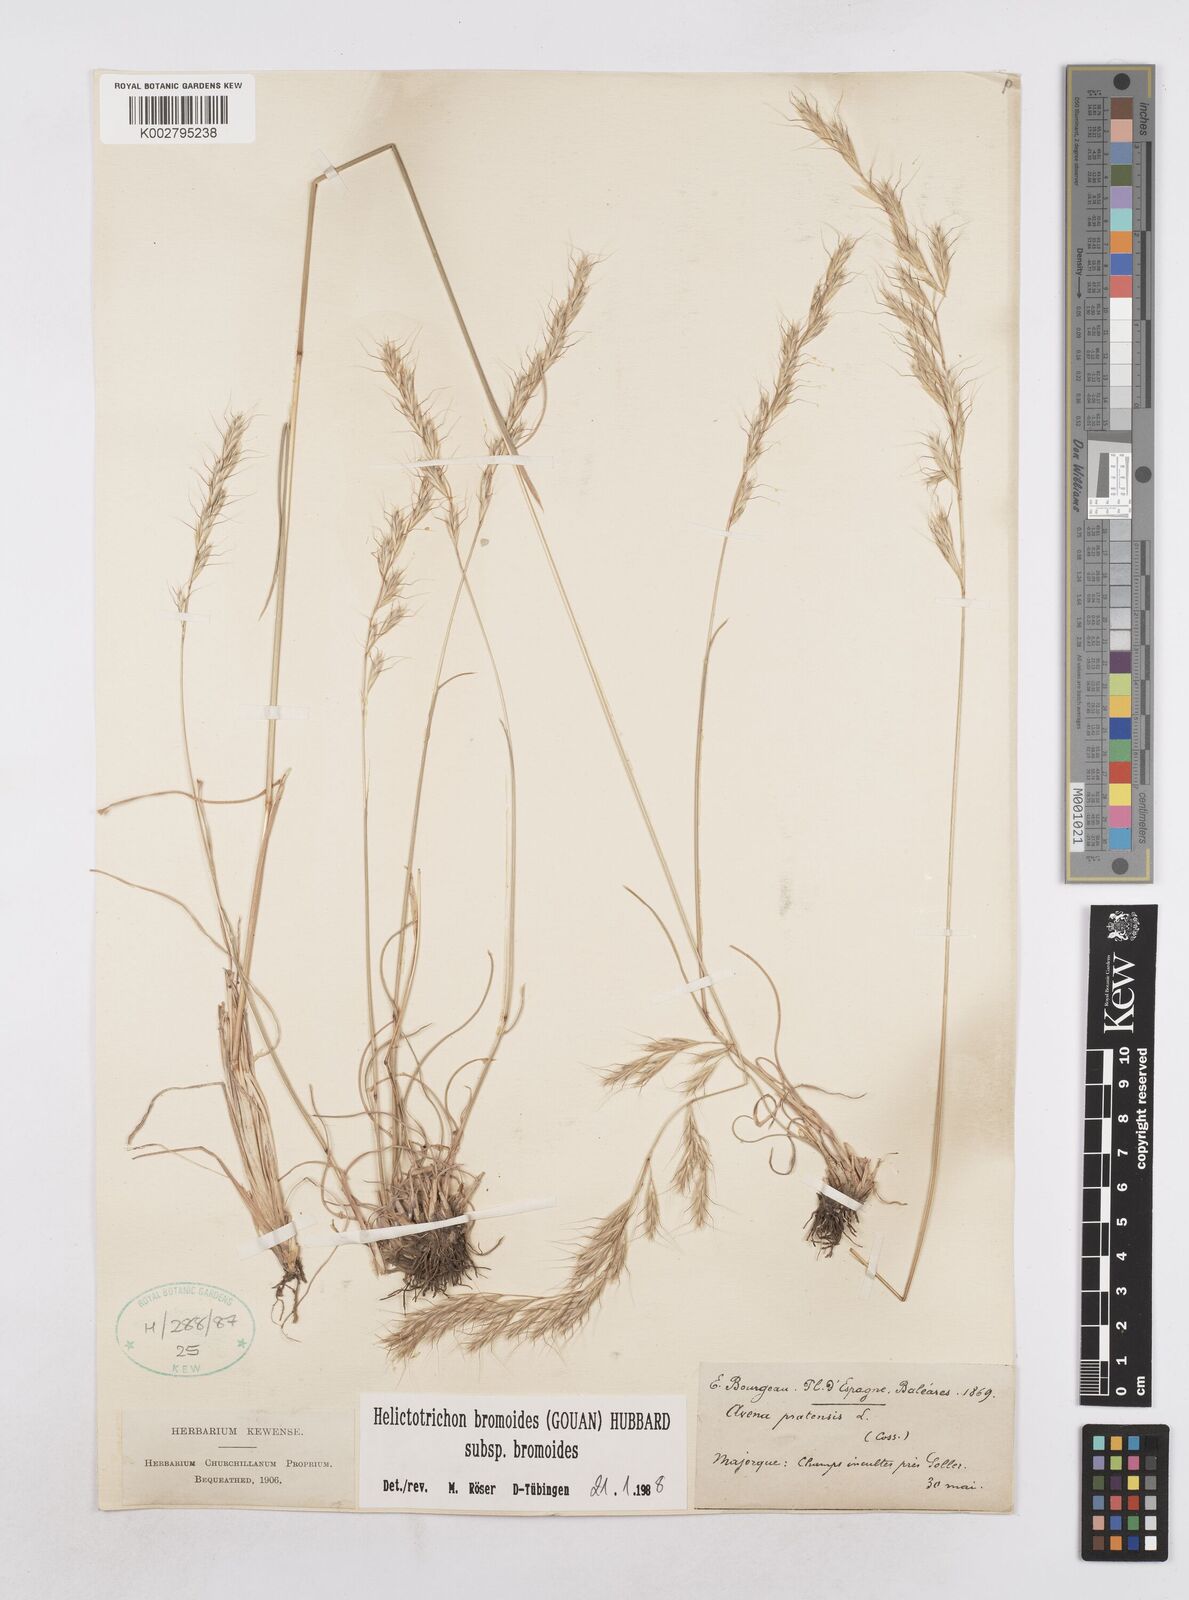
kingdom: Plantae
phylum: Tracheophyta
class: Liliopsida
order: Poales
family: Poaceae
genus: Helictochloa
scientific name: Helictochloa bromoides
